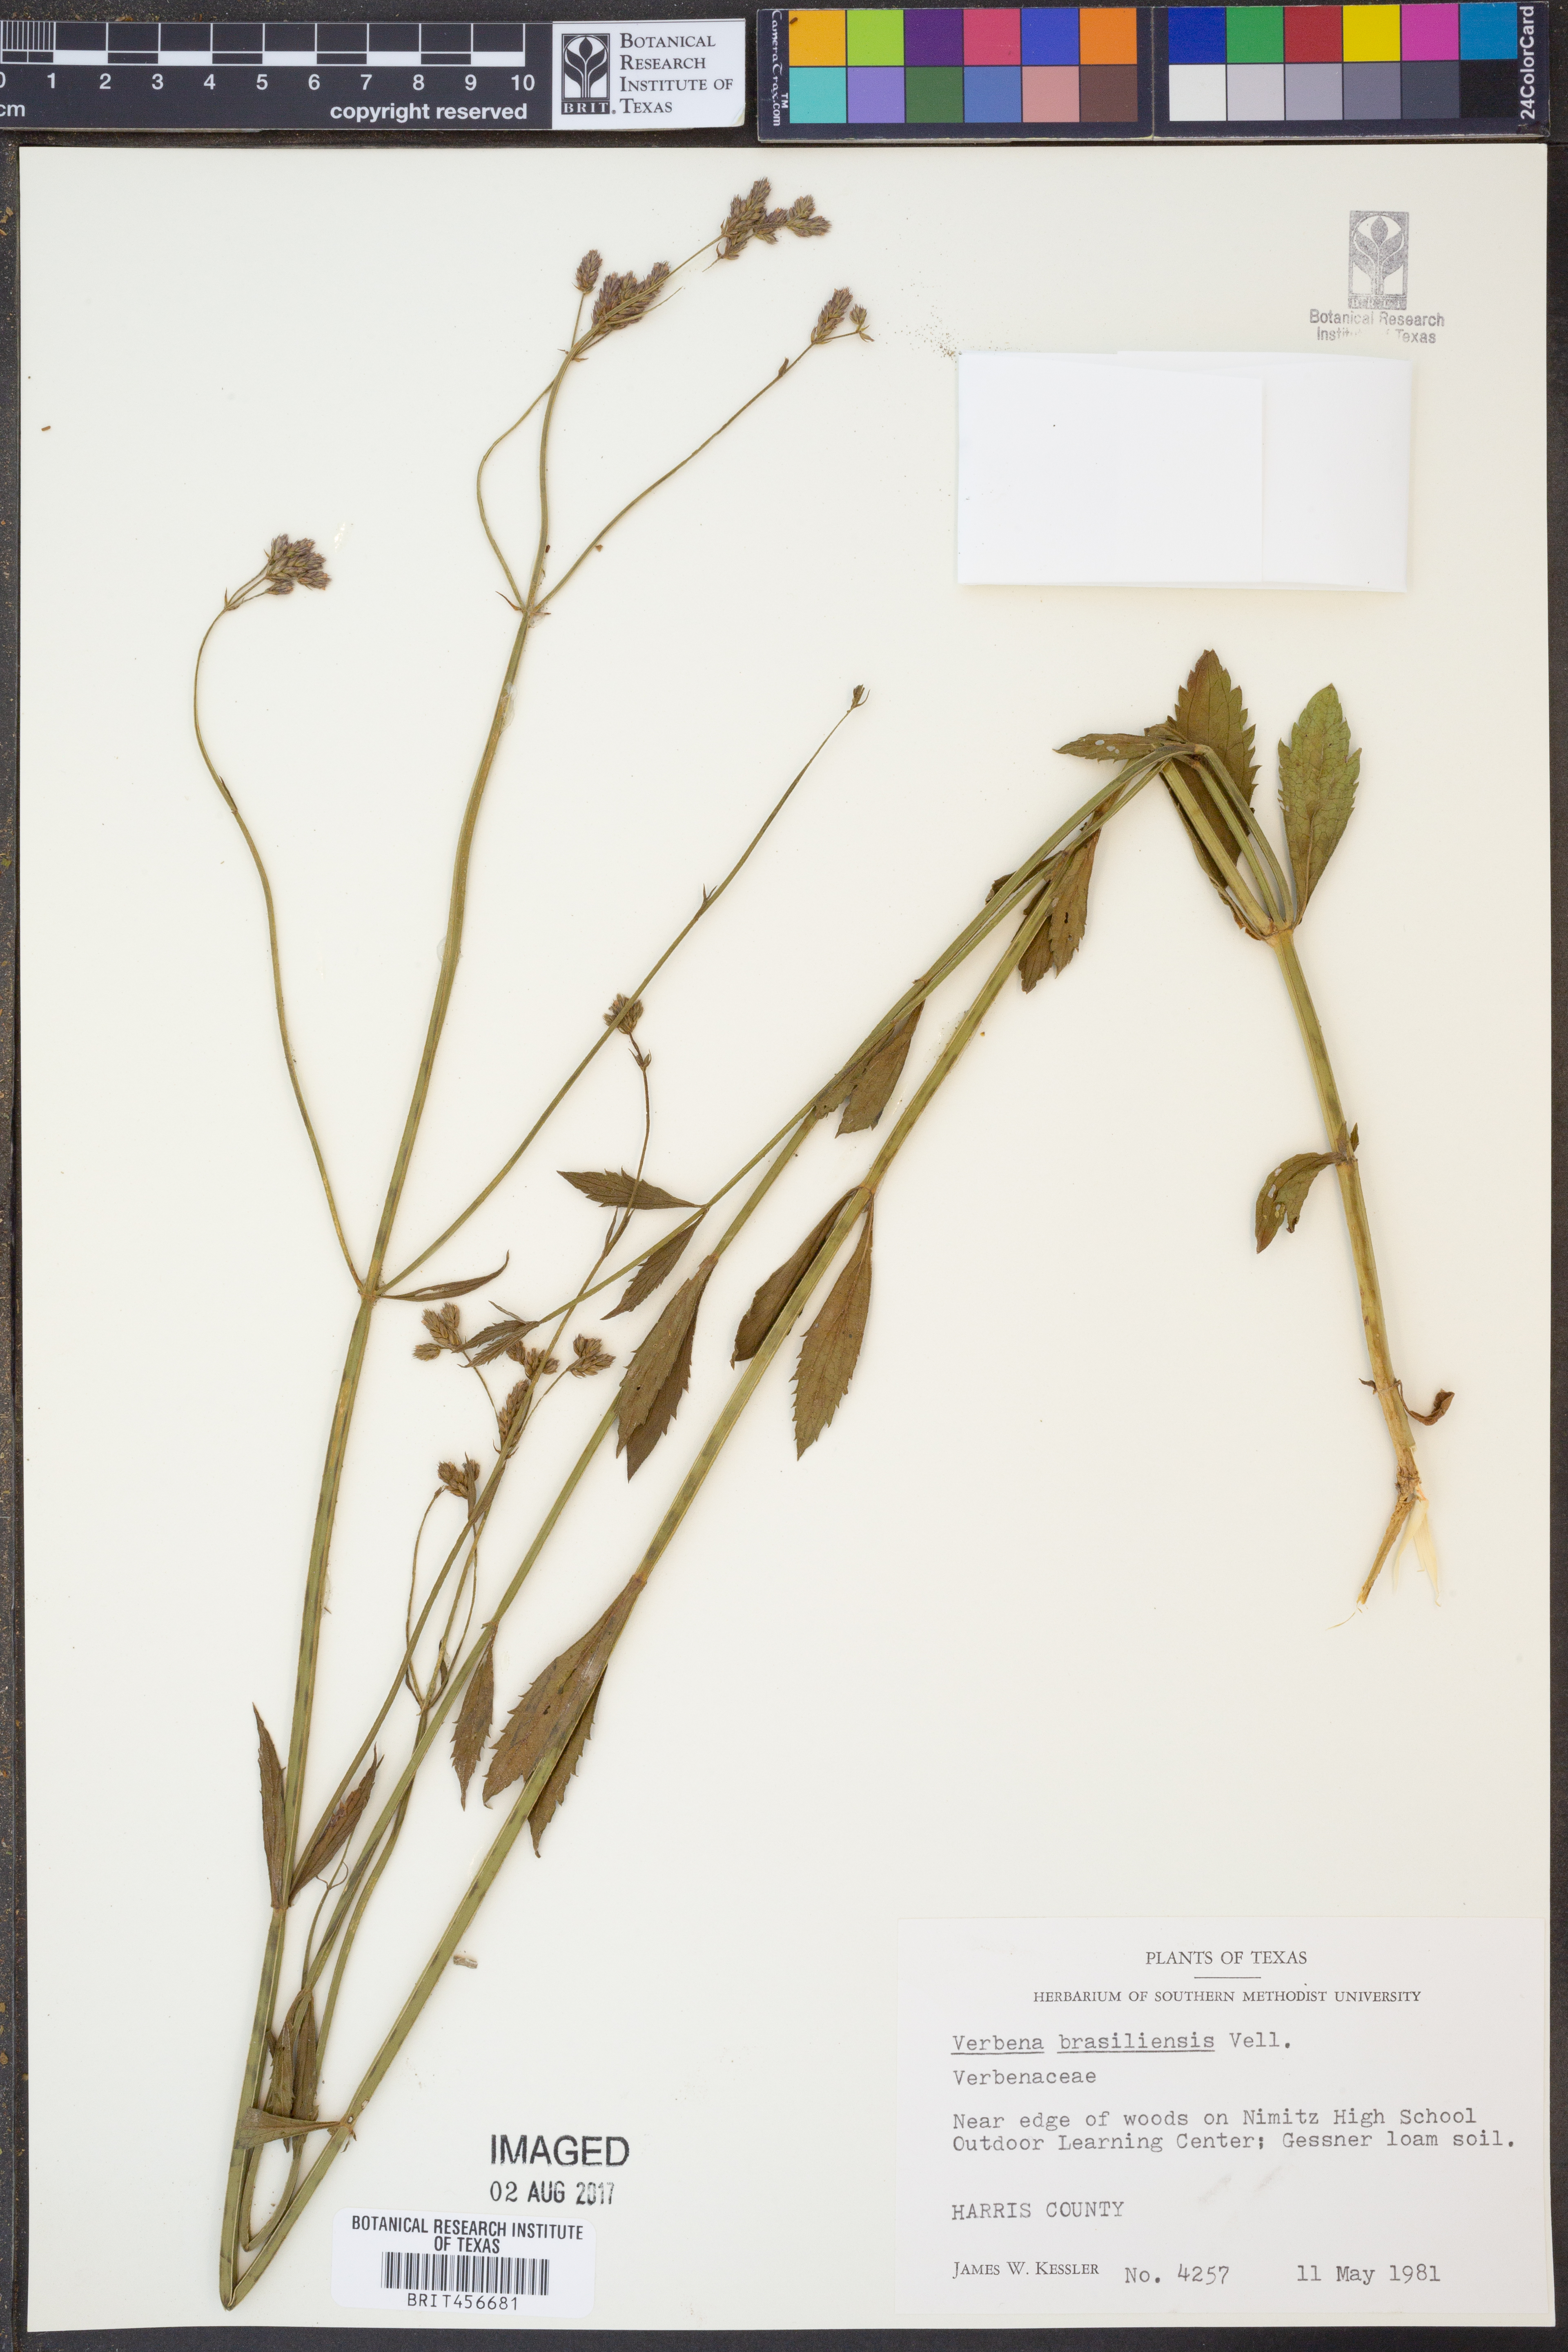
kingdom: Plantae
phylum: Tracheophyta
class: Magnoliopsida
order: Lamiales
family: Verbenaceae
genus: Verbena
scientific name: Verbena brasiliensis
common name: Brazilian vervain
